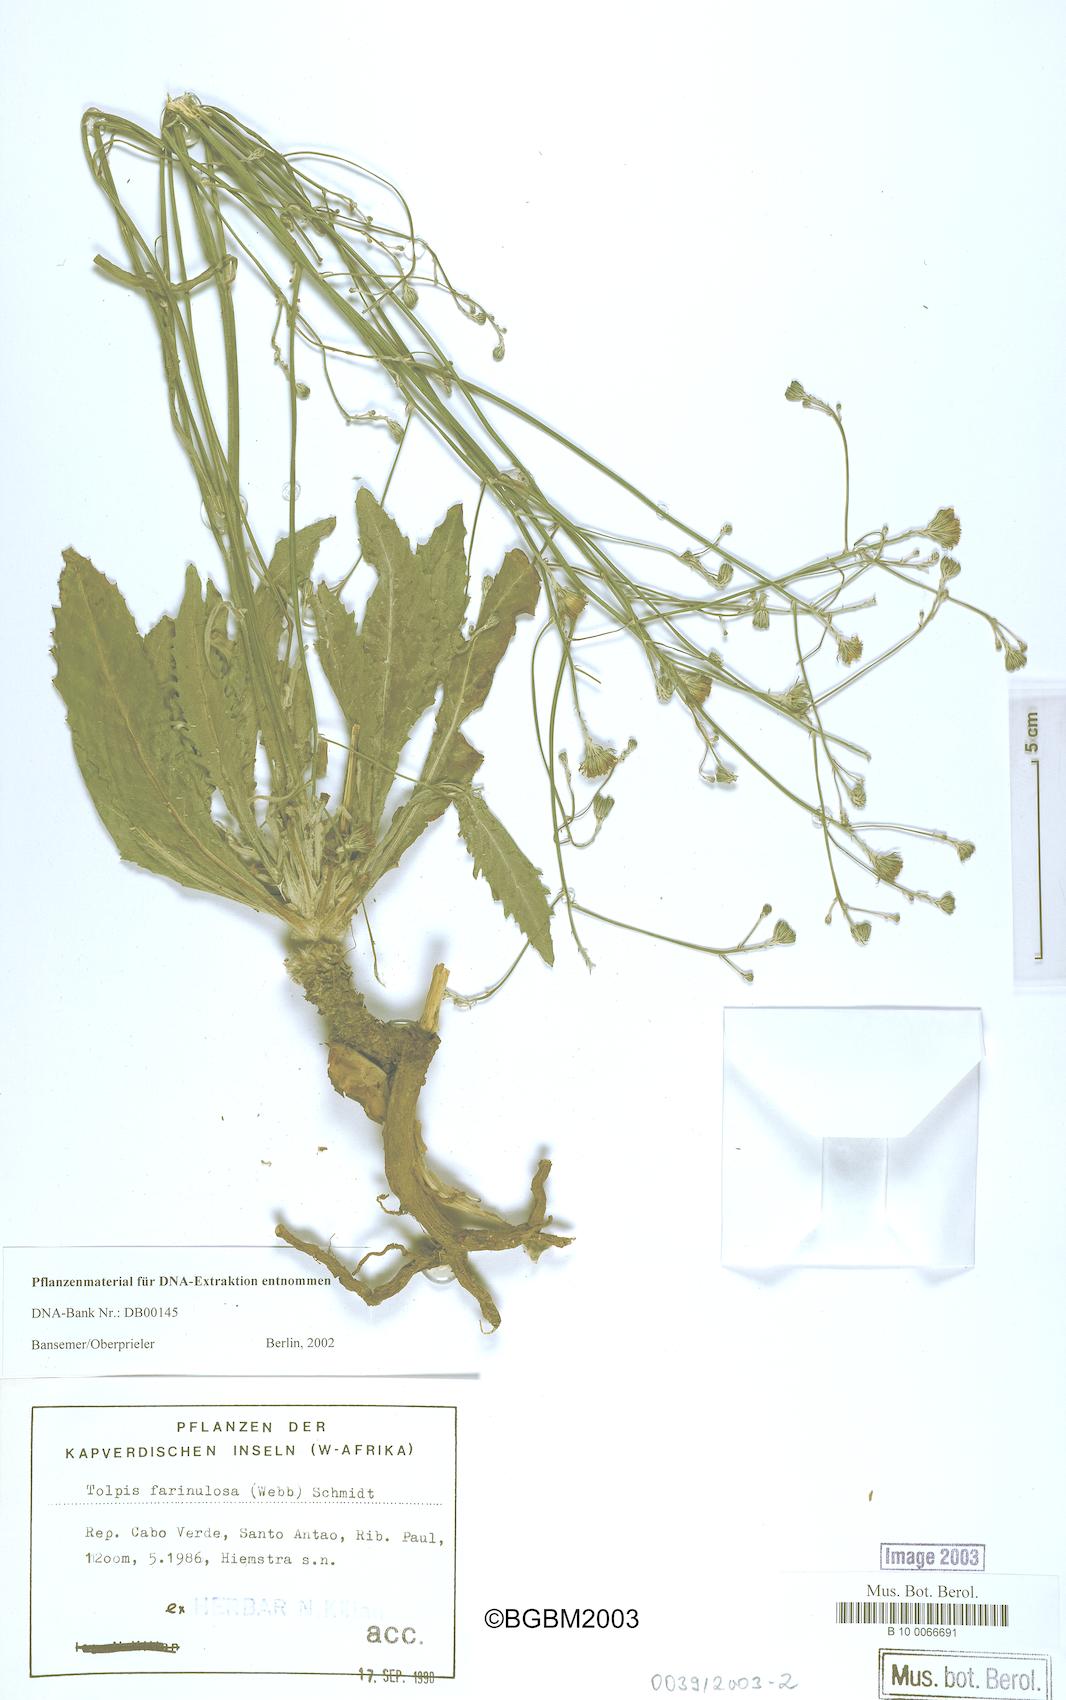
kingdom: Plantae
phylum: Tracheophyta
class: Magnoliopsida
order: Asterales
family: Asteraceae
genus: Tolpis
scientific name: Tolpis farinulosa
